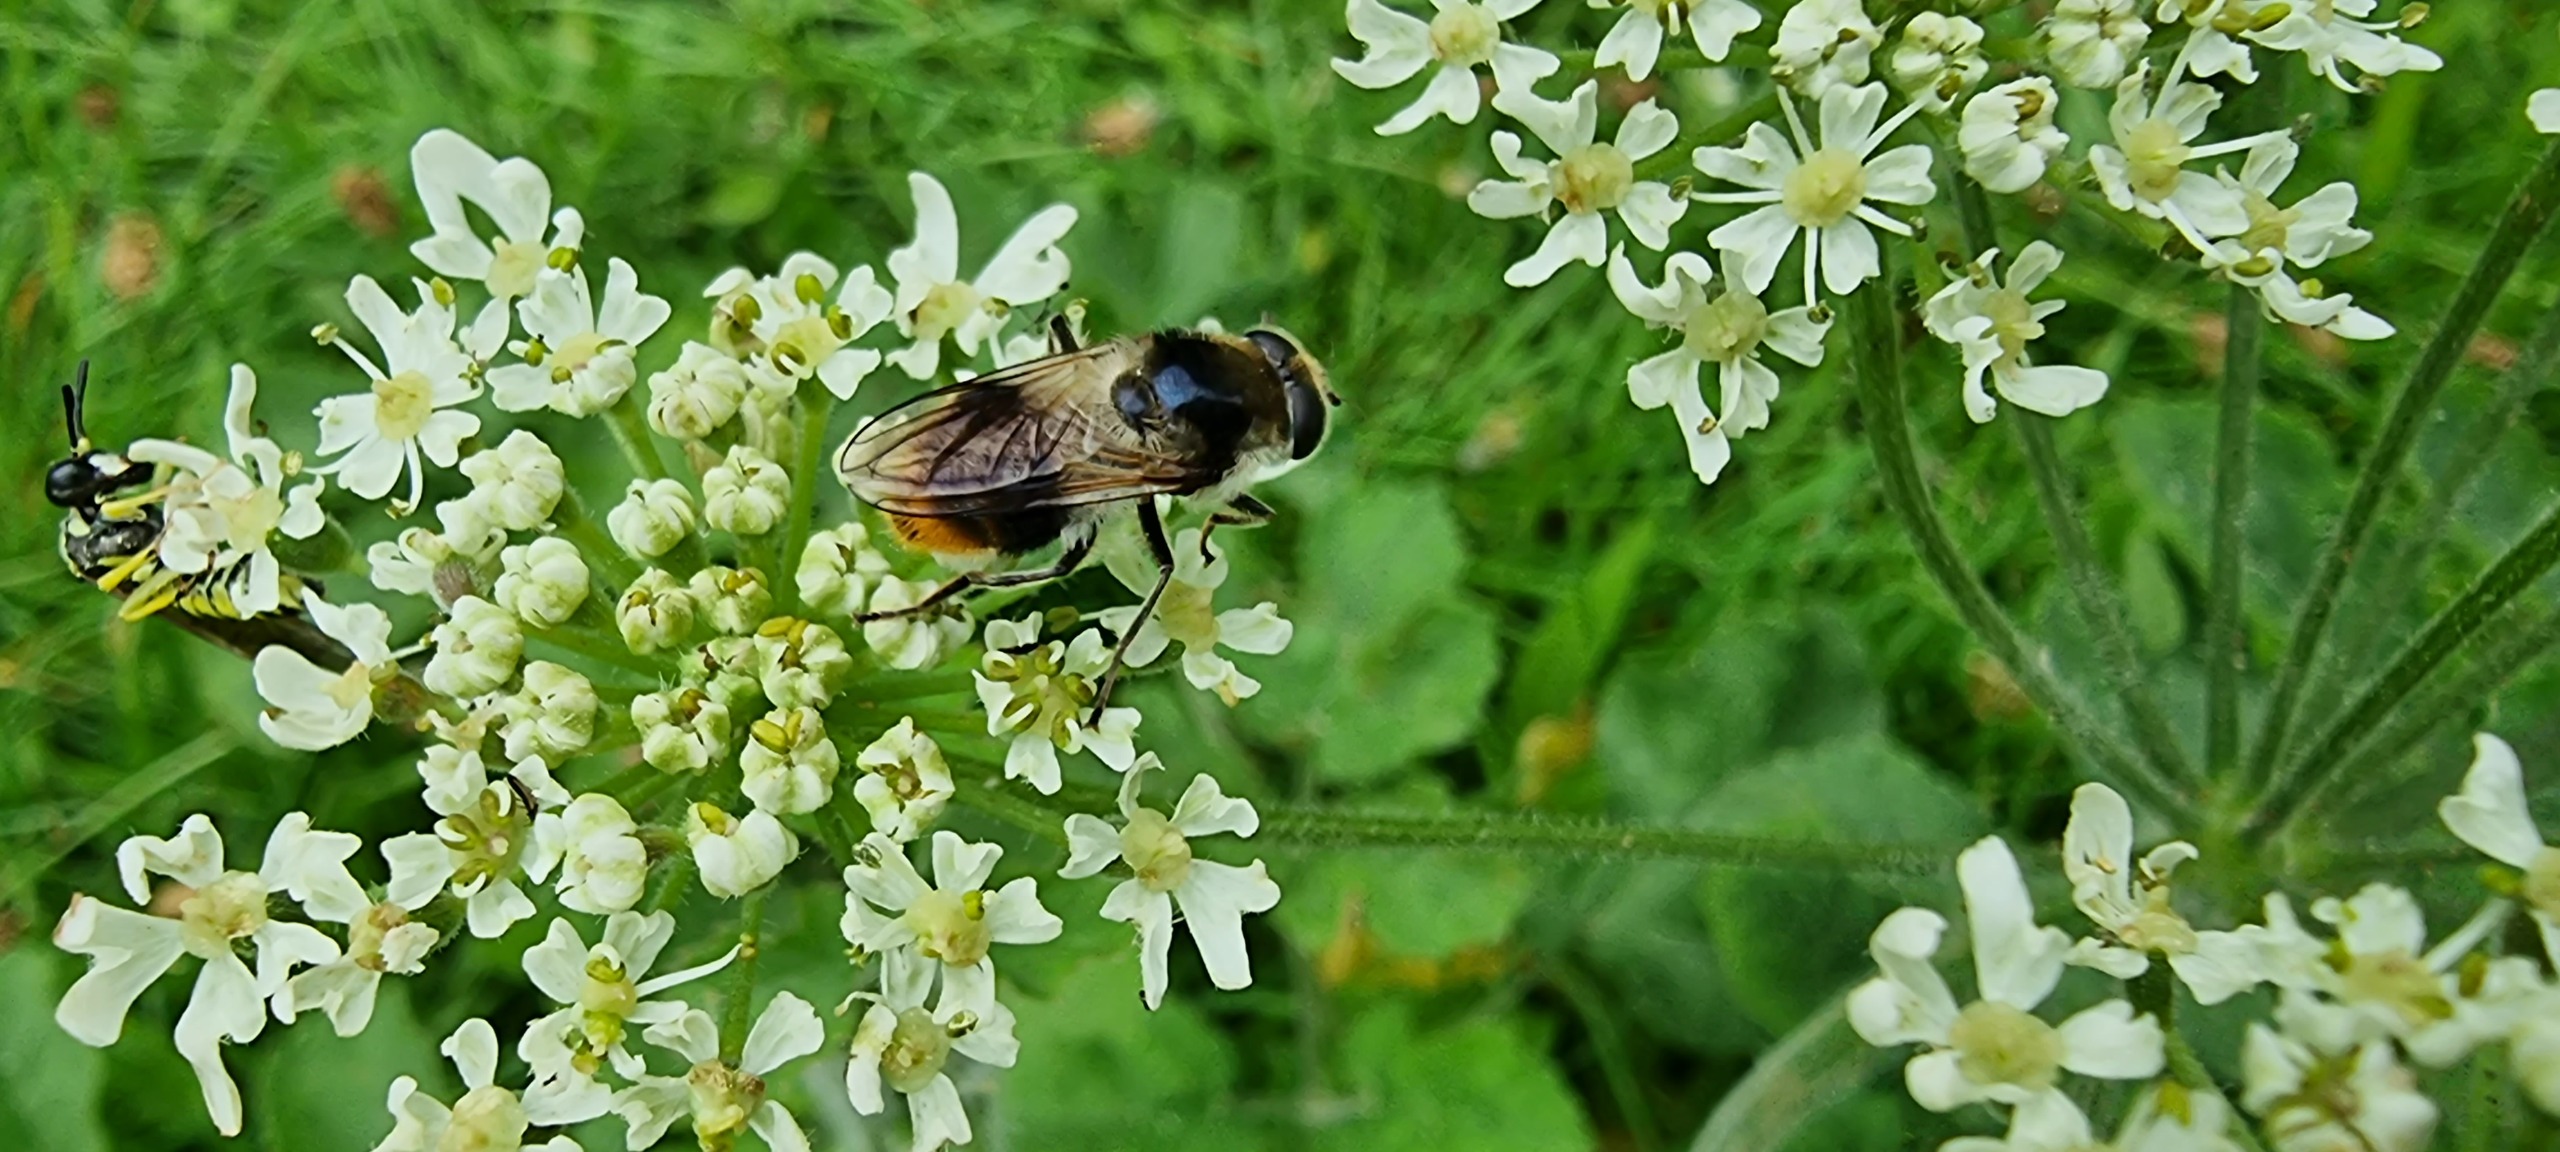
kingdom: Animalia
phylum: Arthropoda
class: Insecta
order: Diptera
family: Syrphidae
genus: Cheilosia
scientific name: Cheilosia illustrata
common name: Broget urtesvirreflue
